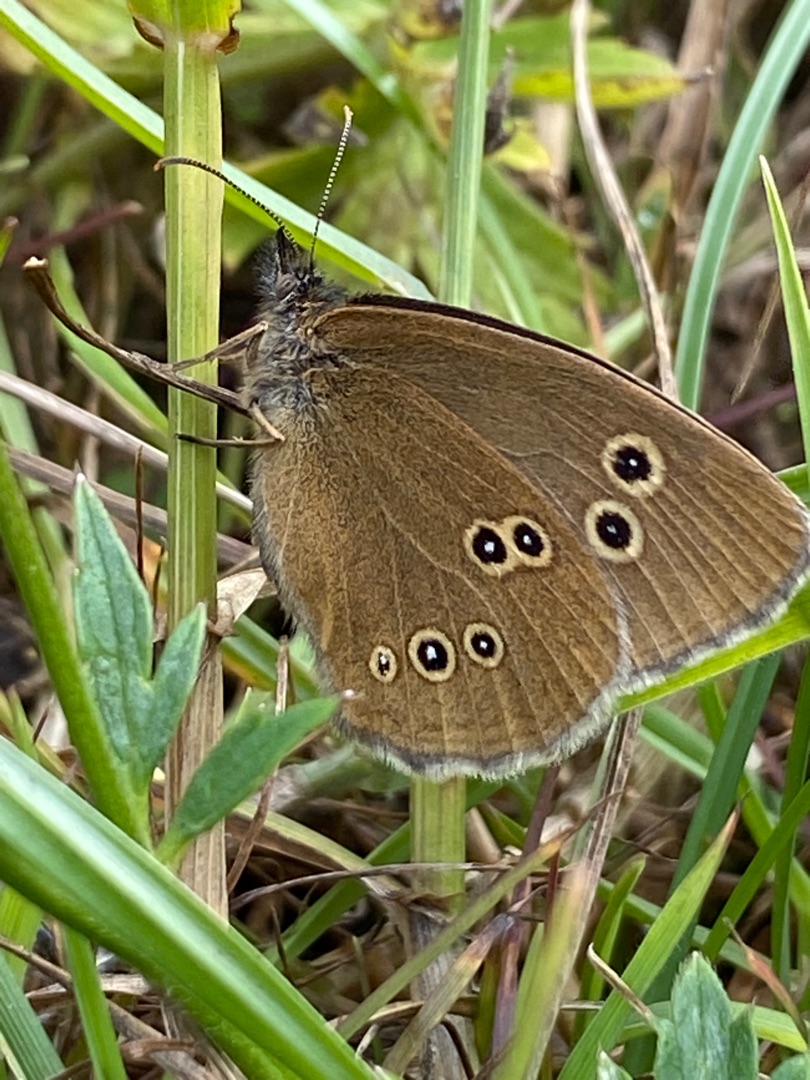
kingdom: Animalia
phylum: Arthropoda
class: Insecta
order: Lepidoptera
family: Nymphalidae
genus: Aphantopus
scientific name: Aphantopus hyperantus
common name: Engrandøje
